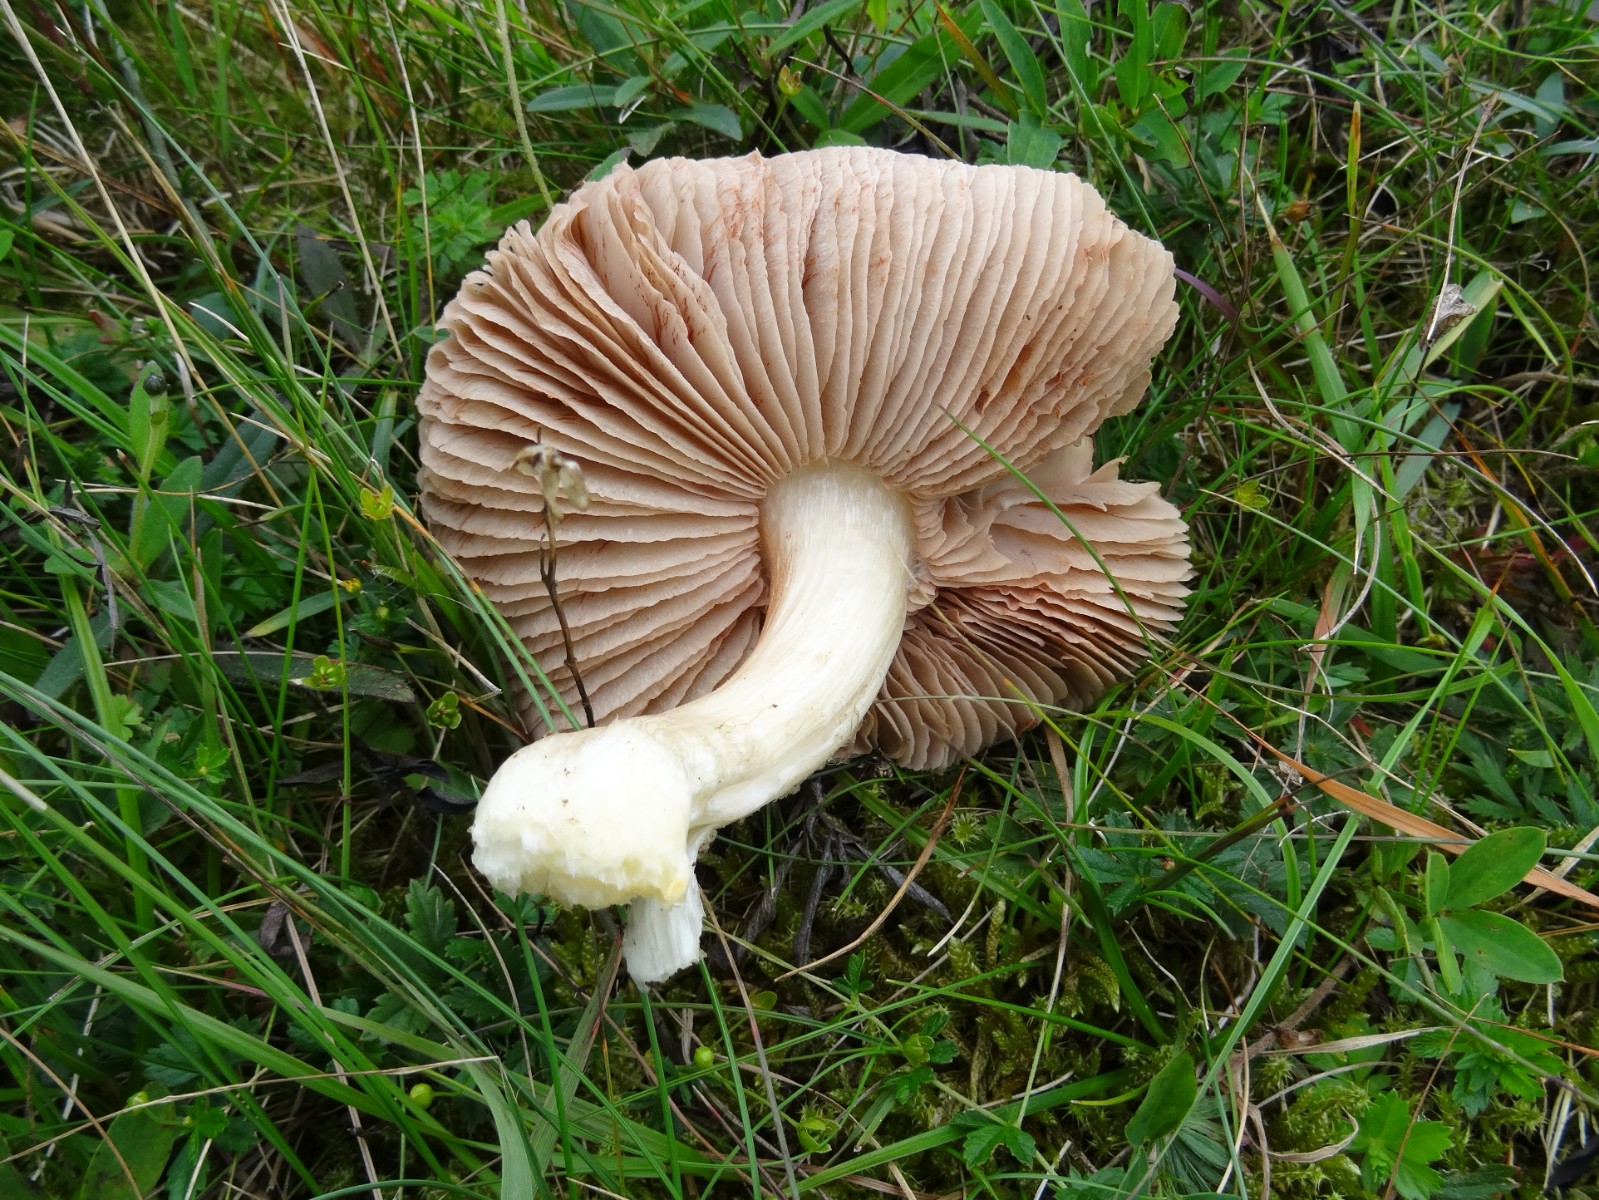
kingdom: Fungi
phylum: Basidiomycota
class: Agaricomycetes
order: Agaricales
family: Entolomataceae
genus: Entoloma
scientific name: Entoloma prunuloides
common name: mel-rødblad
